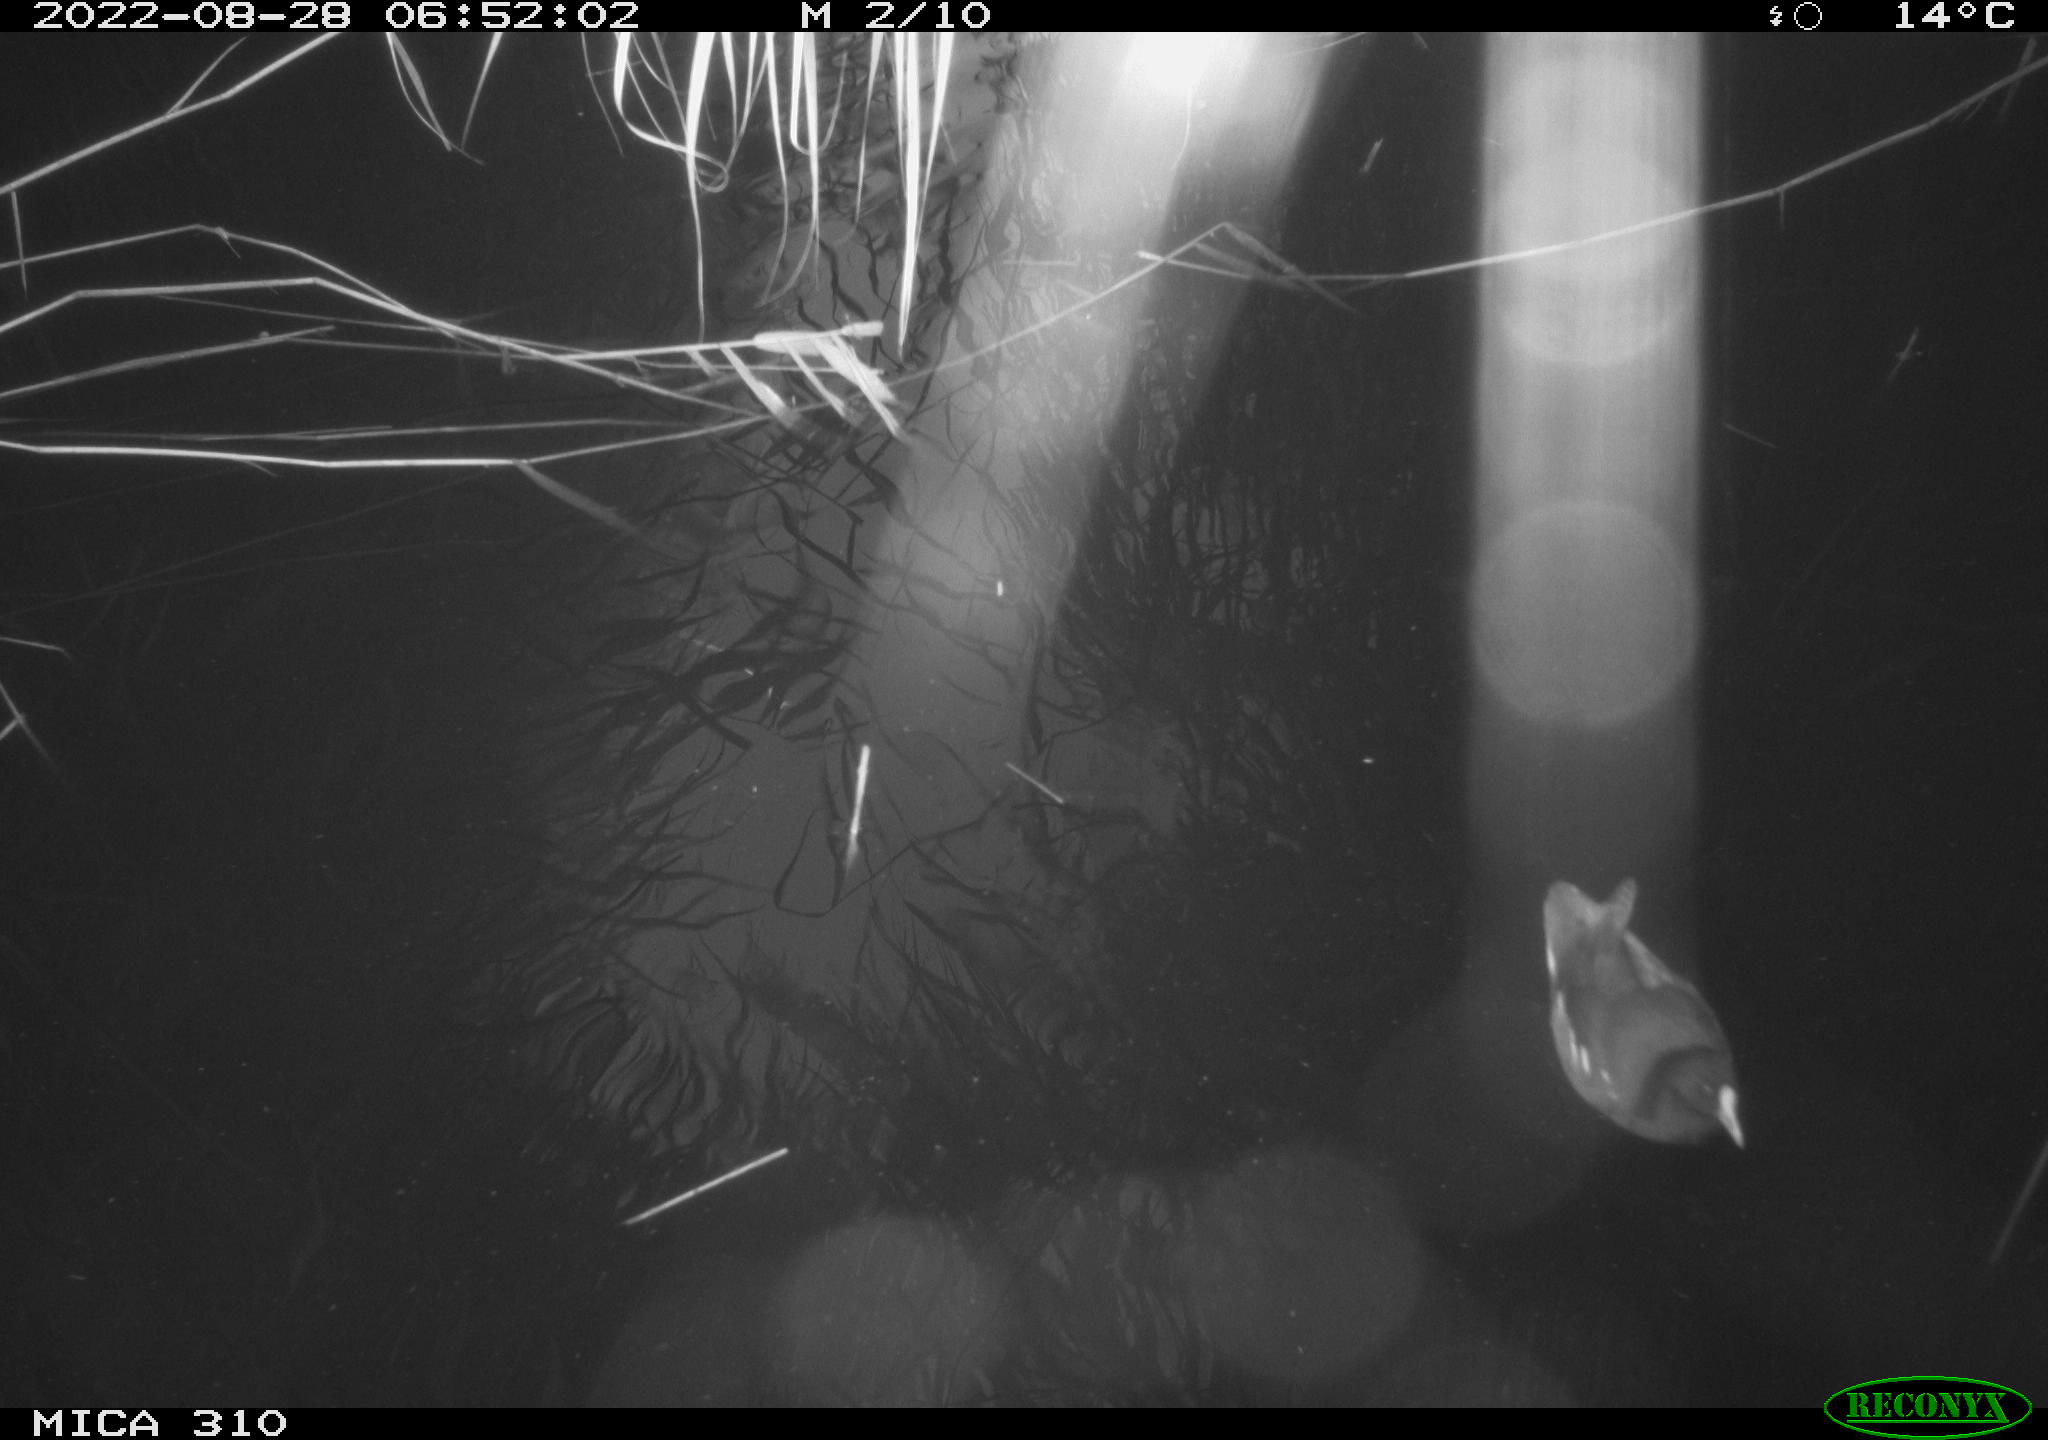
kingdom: Animalia
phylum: Chordata
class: Aves
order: Gruiformes
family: Rallidae
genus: Gallinula
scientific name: Gallinula chloropus
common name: Common moorhen
